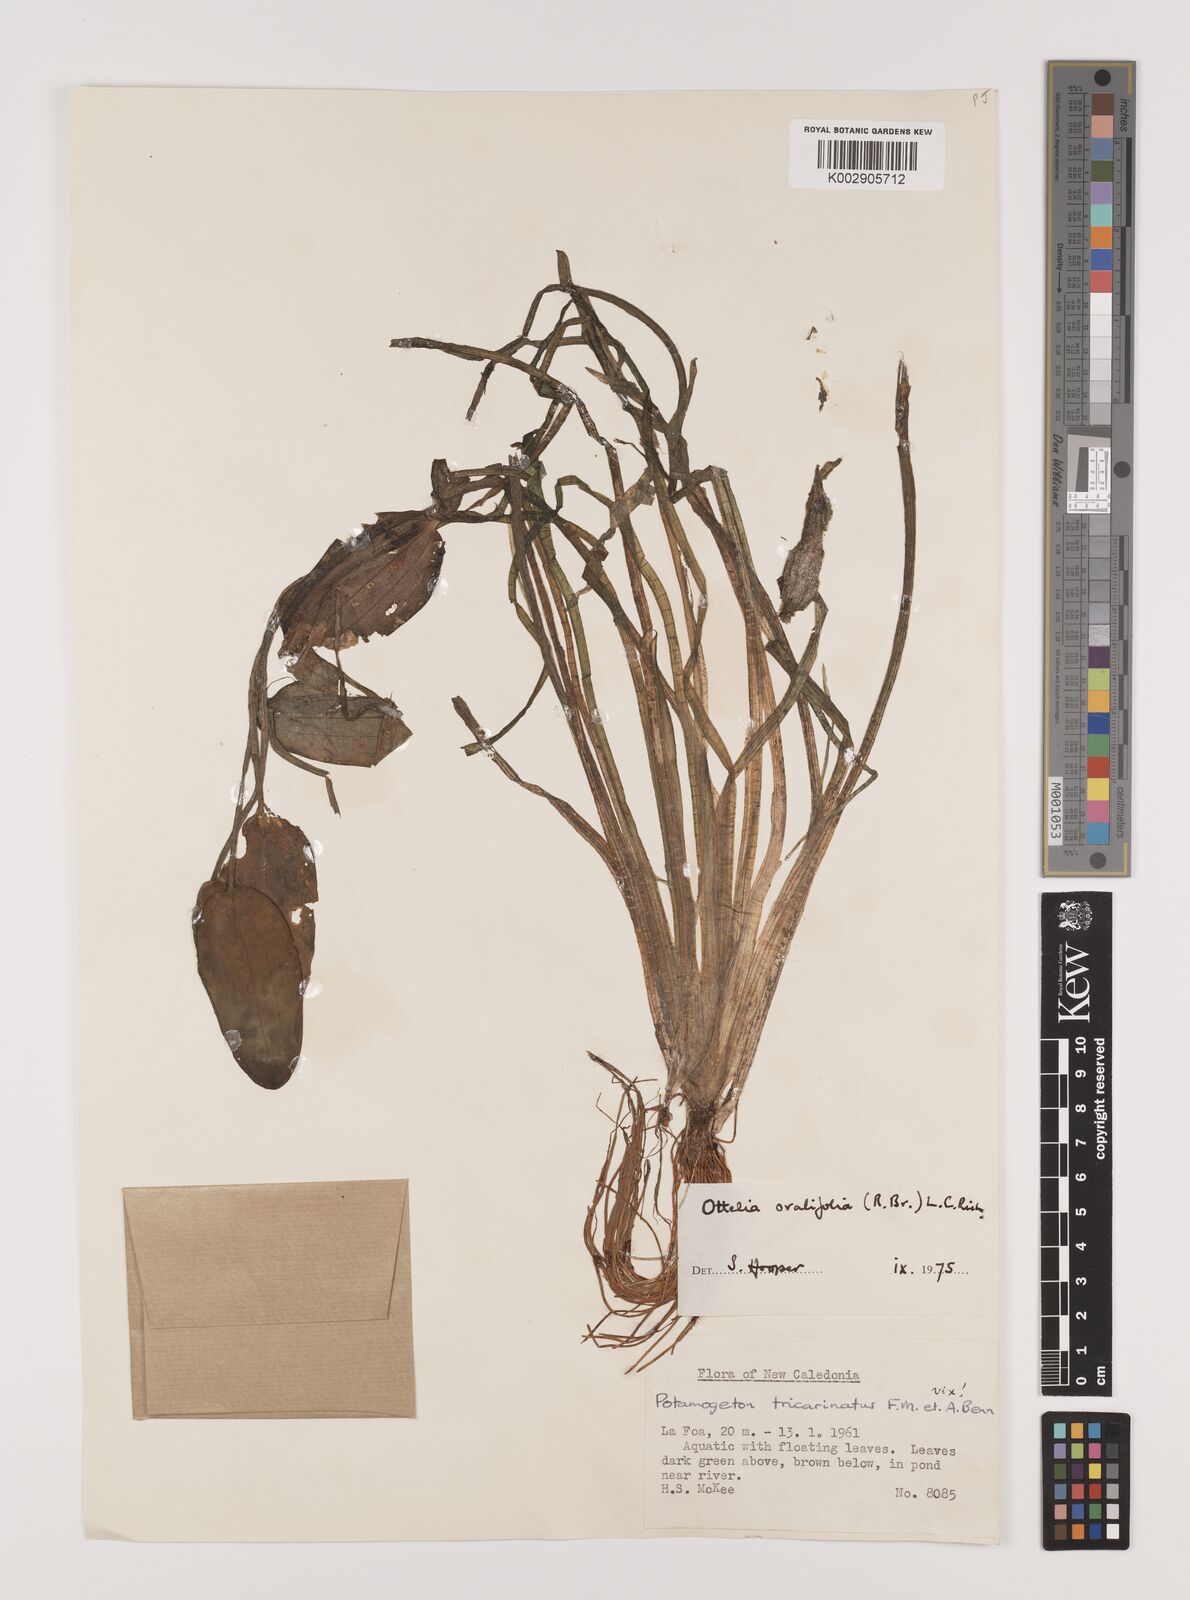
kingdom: Plantae
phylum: Tracheophyta
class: Liliopsida
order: Alismatales
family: Hydrocharitaceae
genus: Ottelia
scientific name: Ottelia ovalifolia
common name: Swamp-lily
